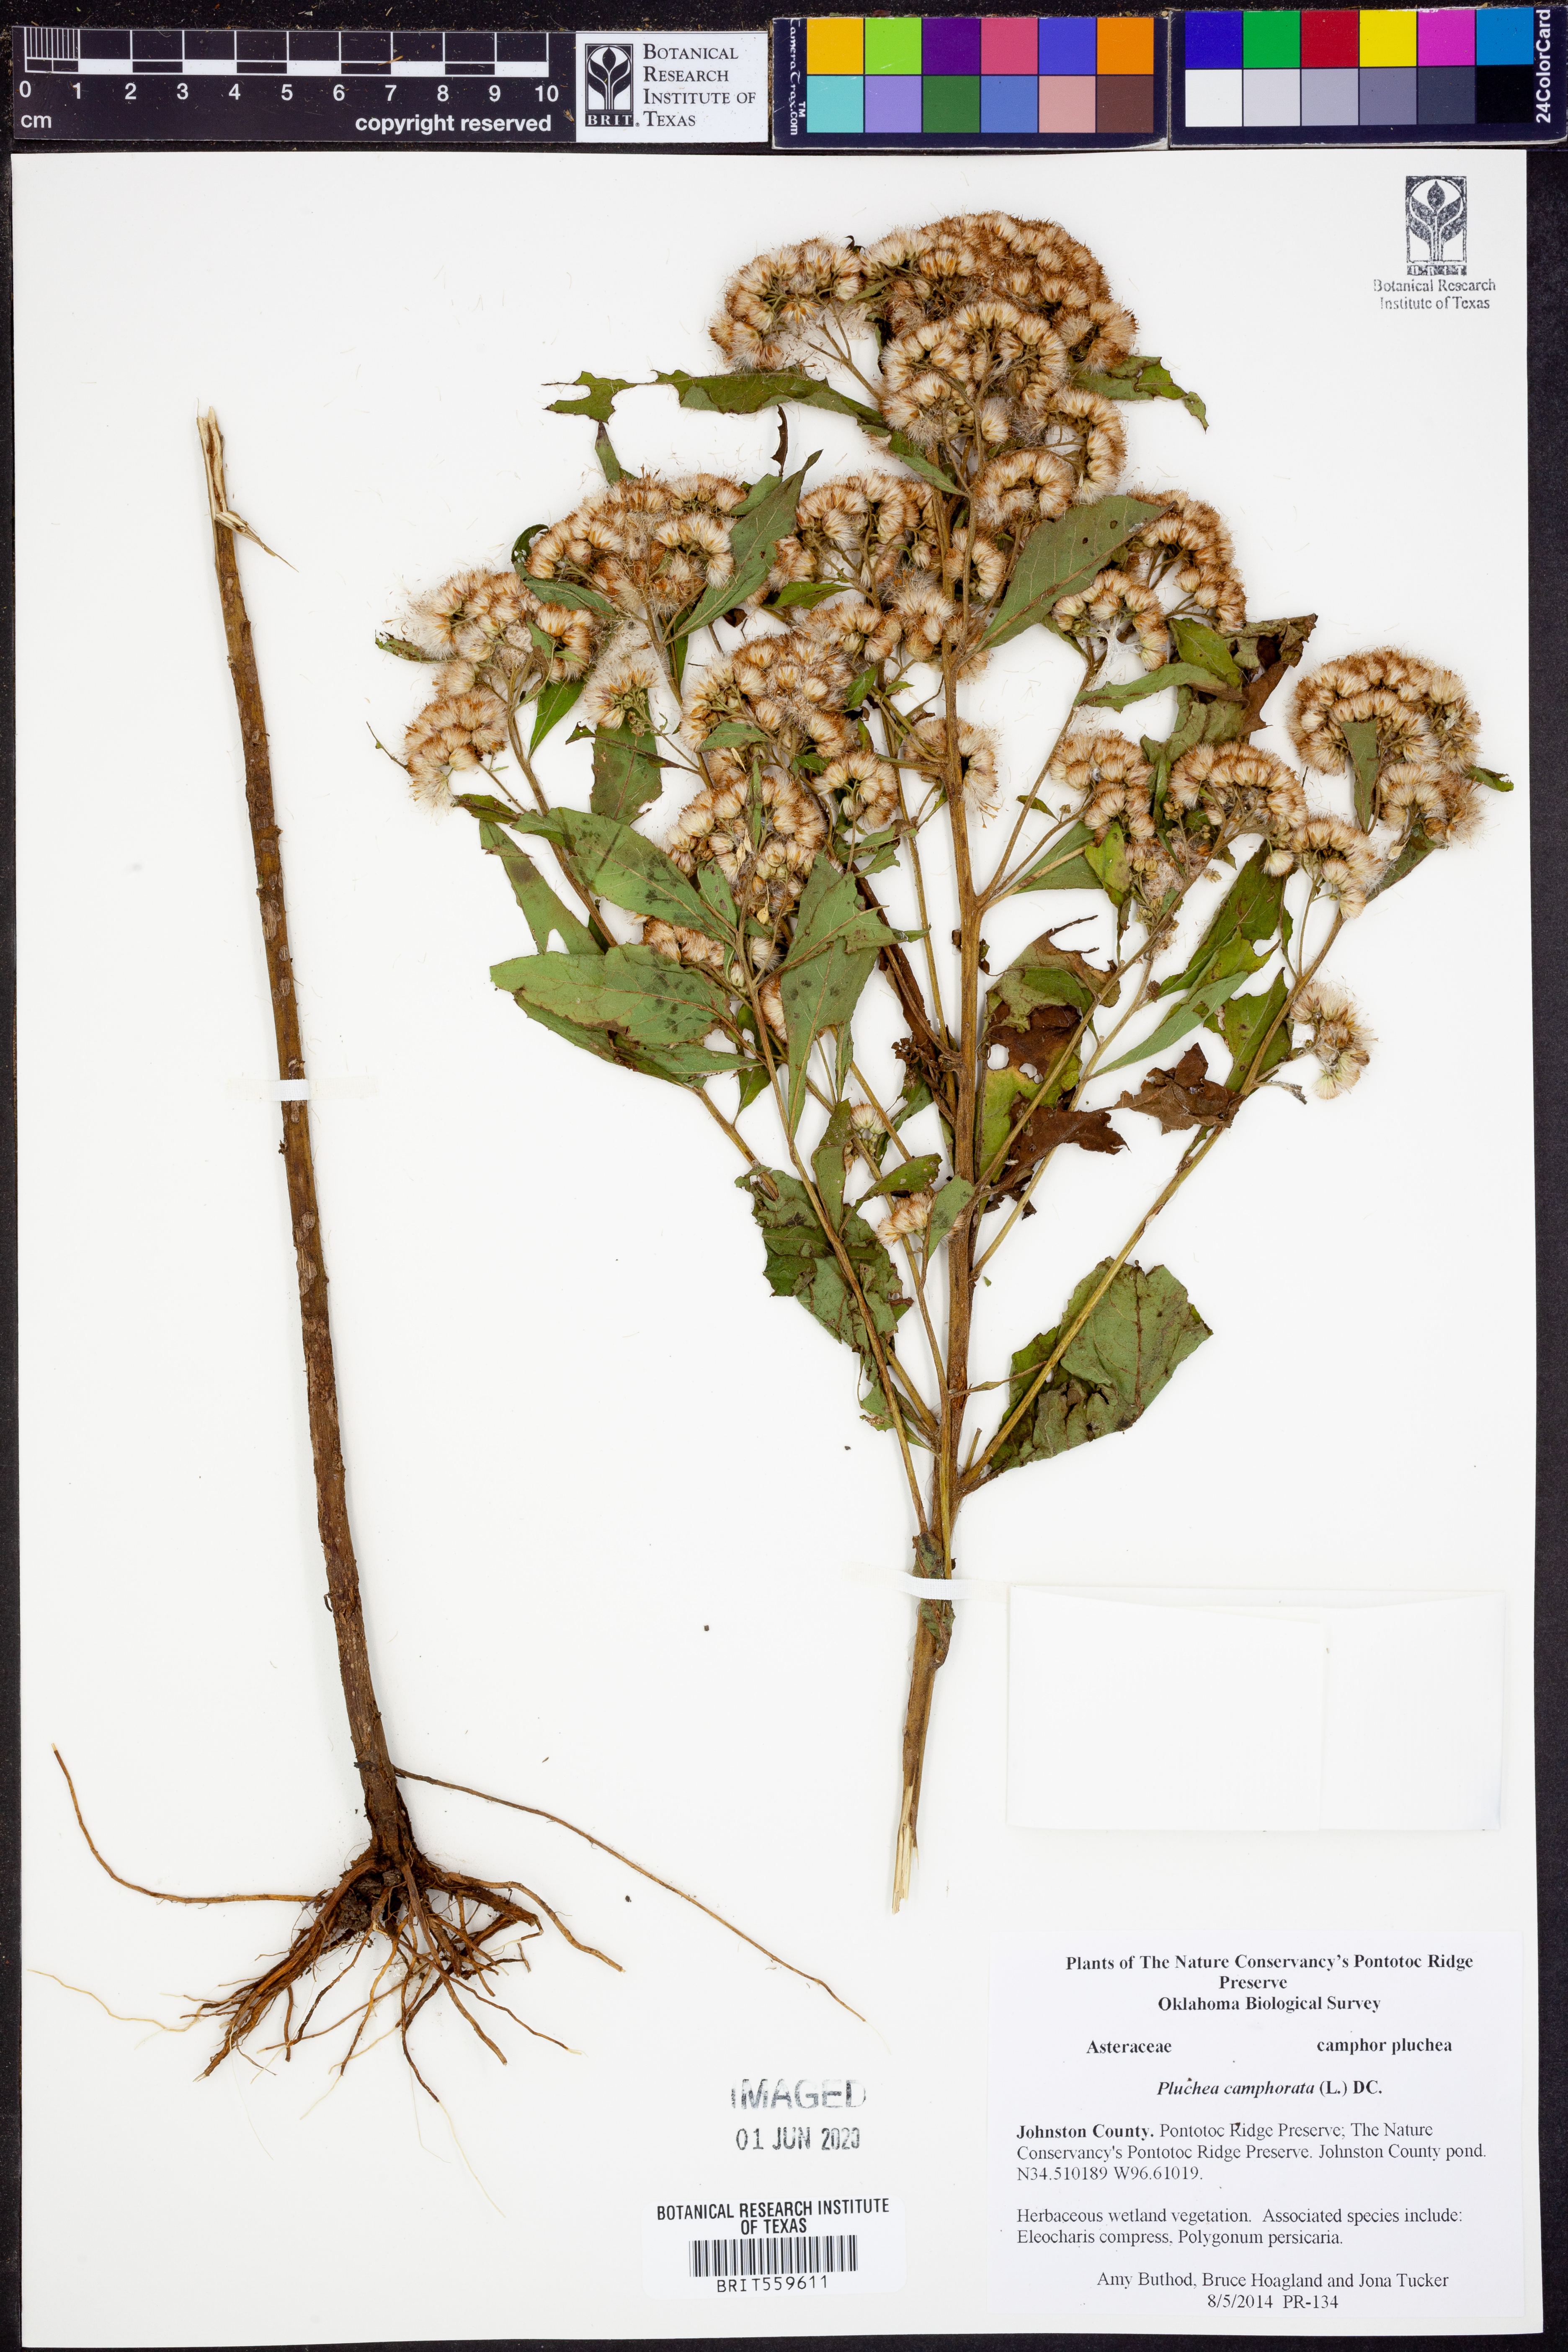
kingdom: Plantae
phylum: Tracheophyta
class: Magnoliopsida
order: Asterales
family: Asteraceae
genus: Pluchea
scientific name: Pluchea camphorata
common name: Camphor pluchea
